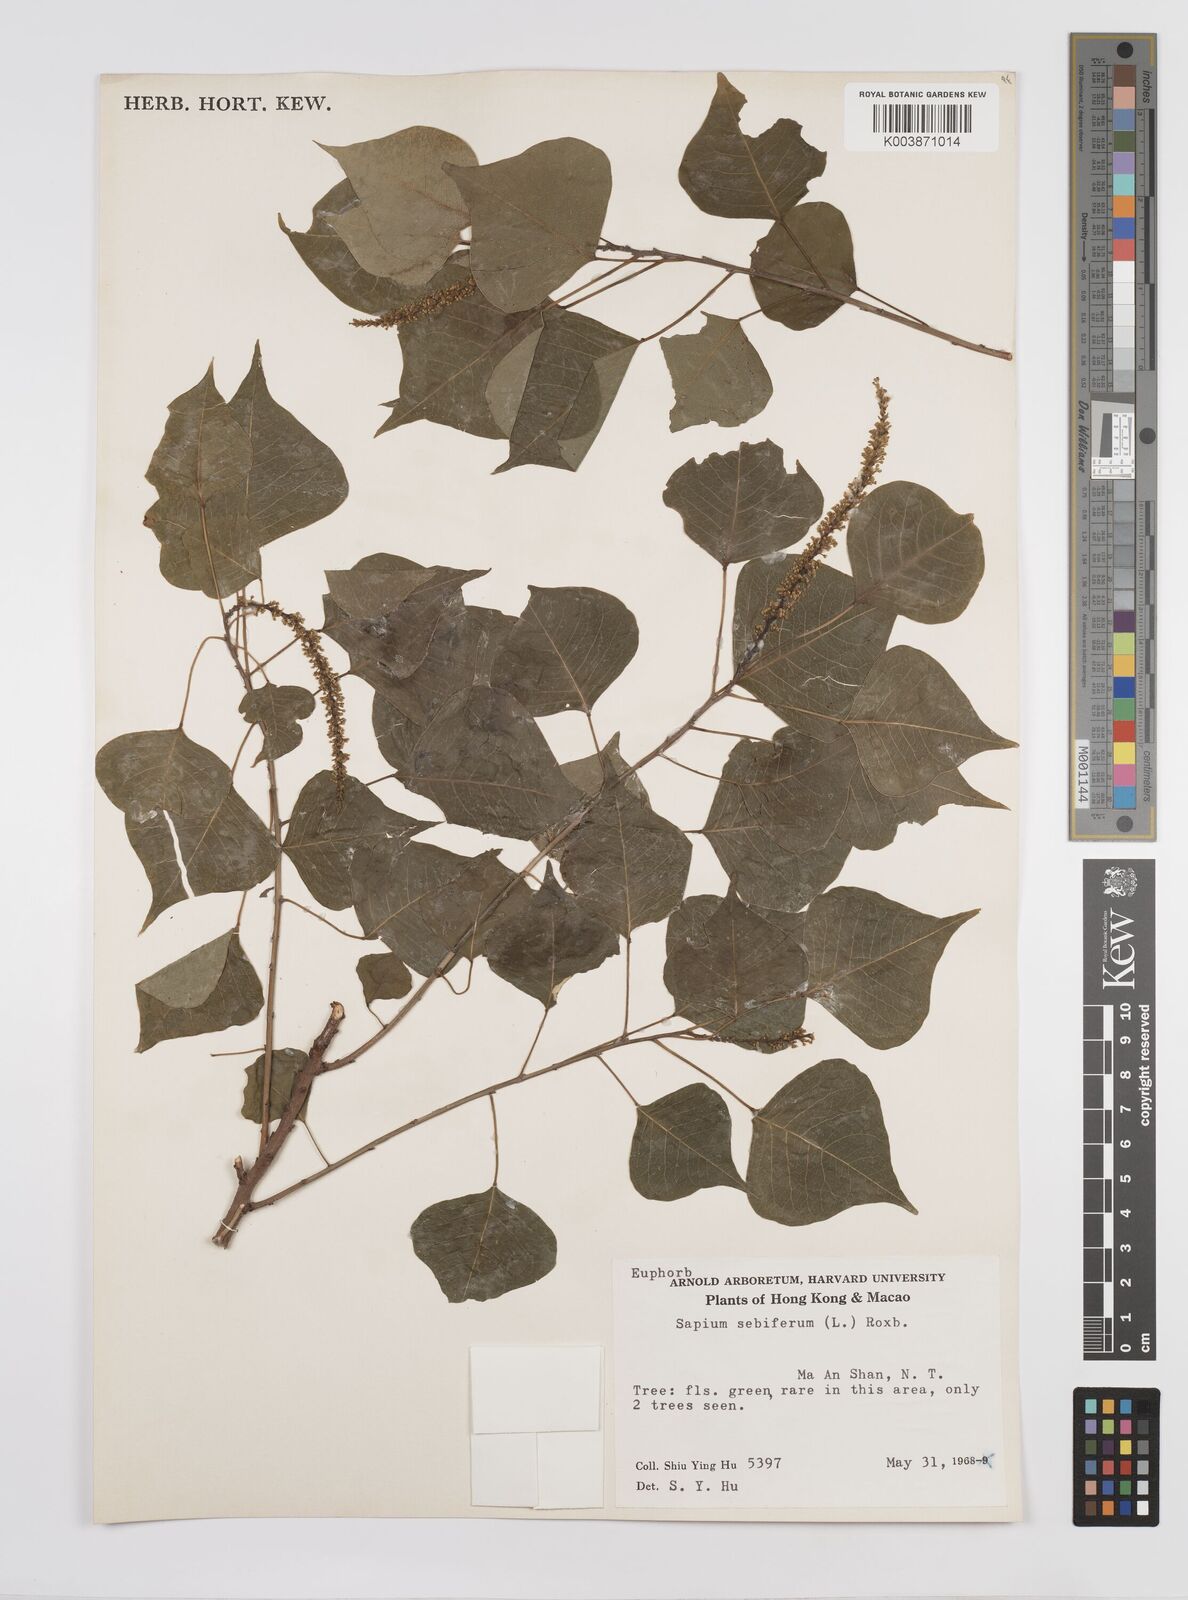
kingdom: Plantae
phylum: Tracheophyta
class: Magnoliopsida
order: Malpighiales
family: Euphorbiaceae
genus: Triadica
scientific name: Triadica sebifera
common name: Chinese tallow
